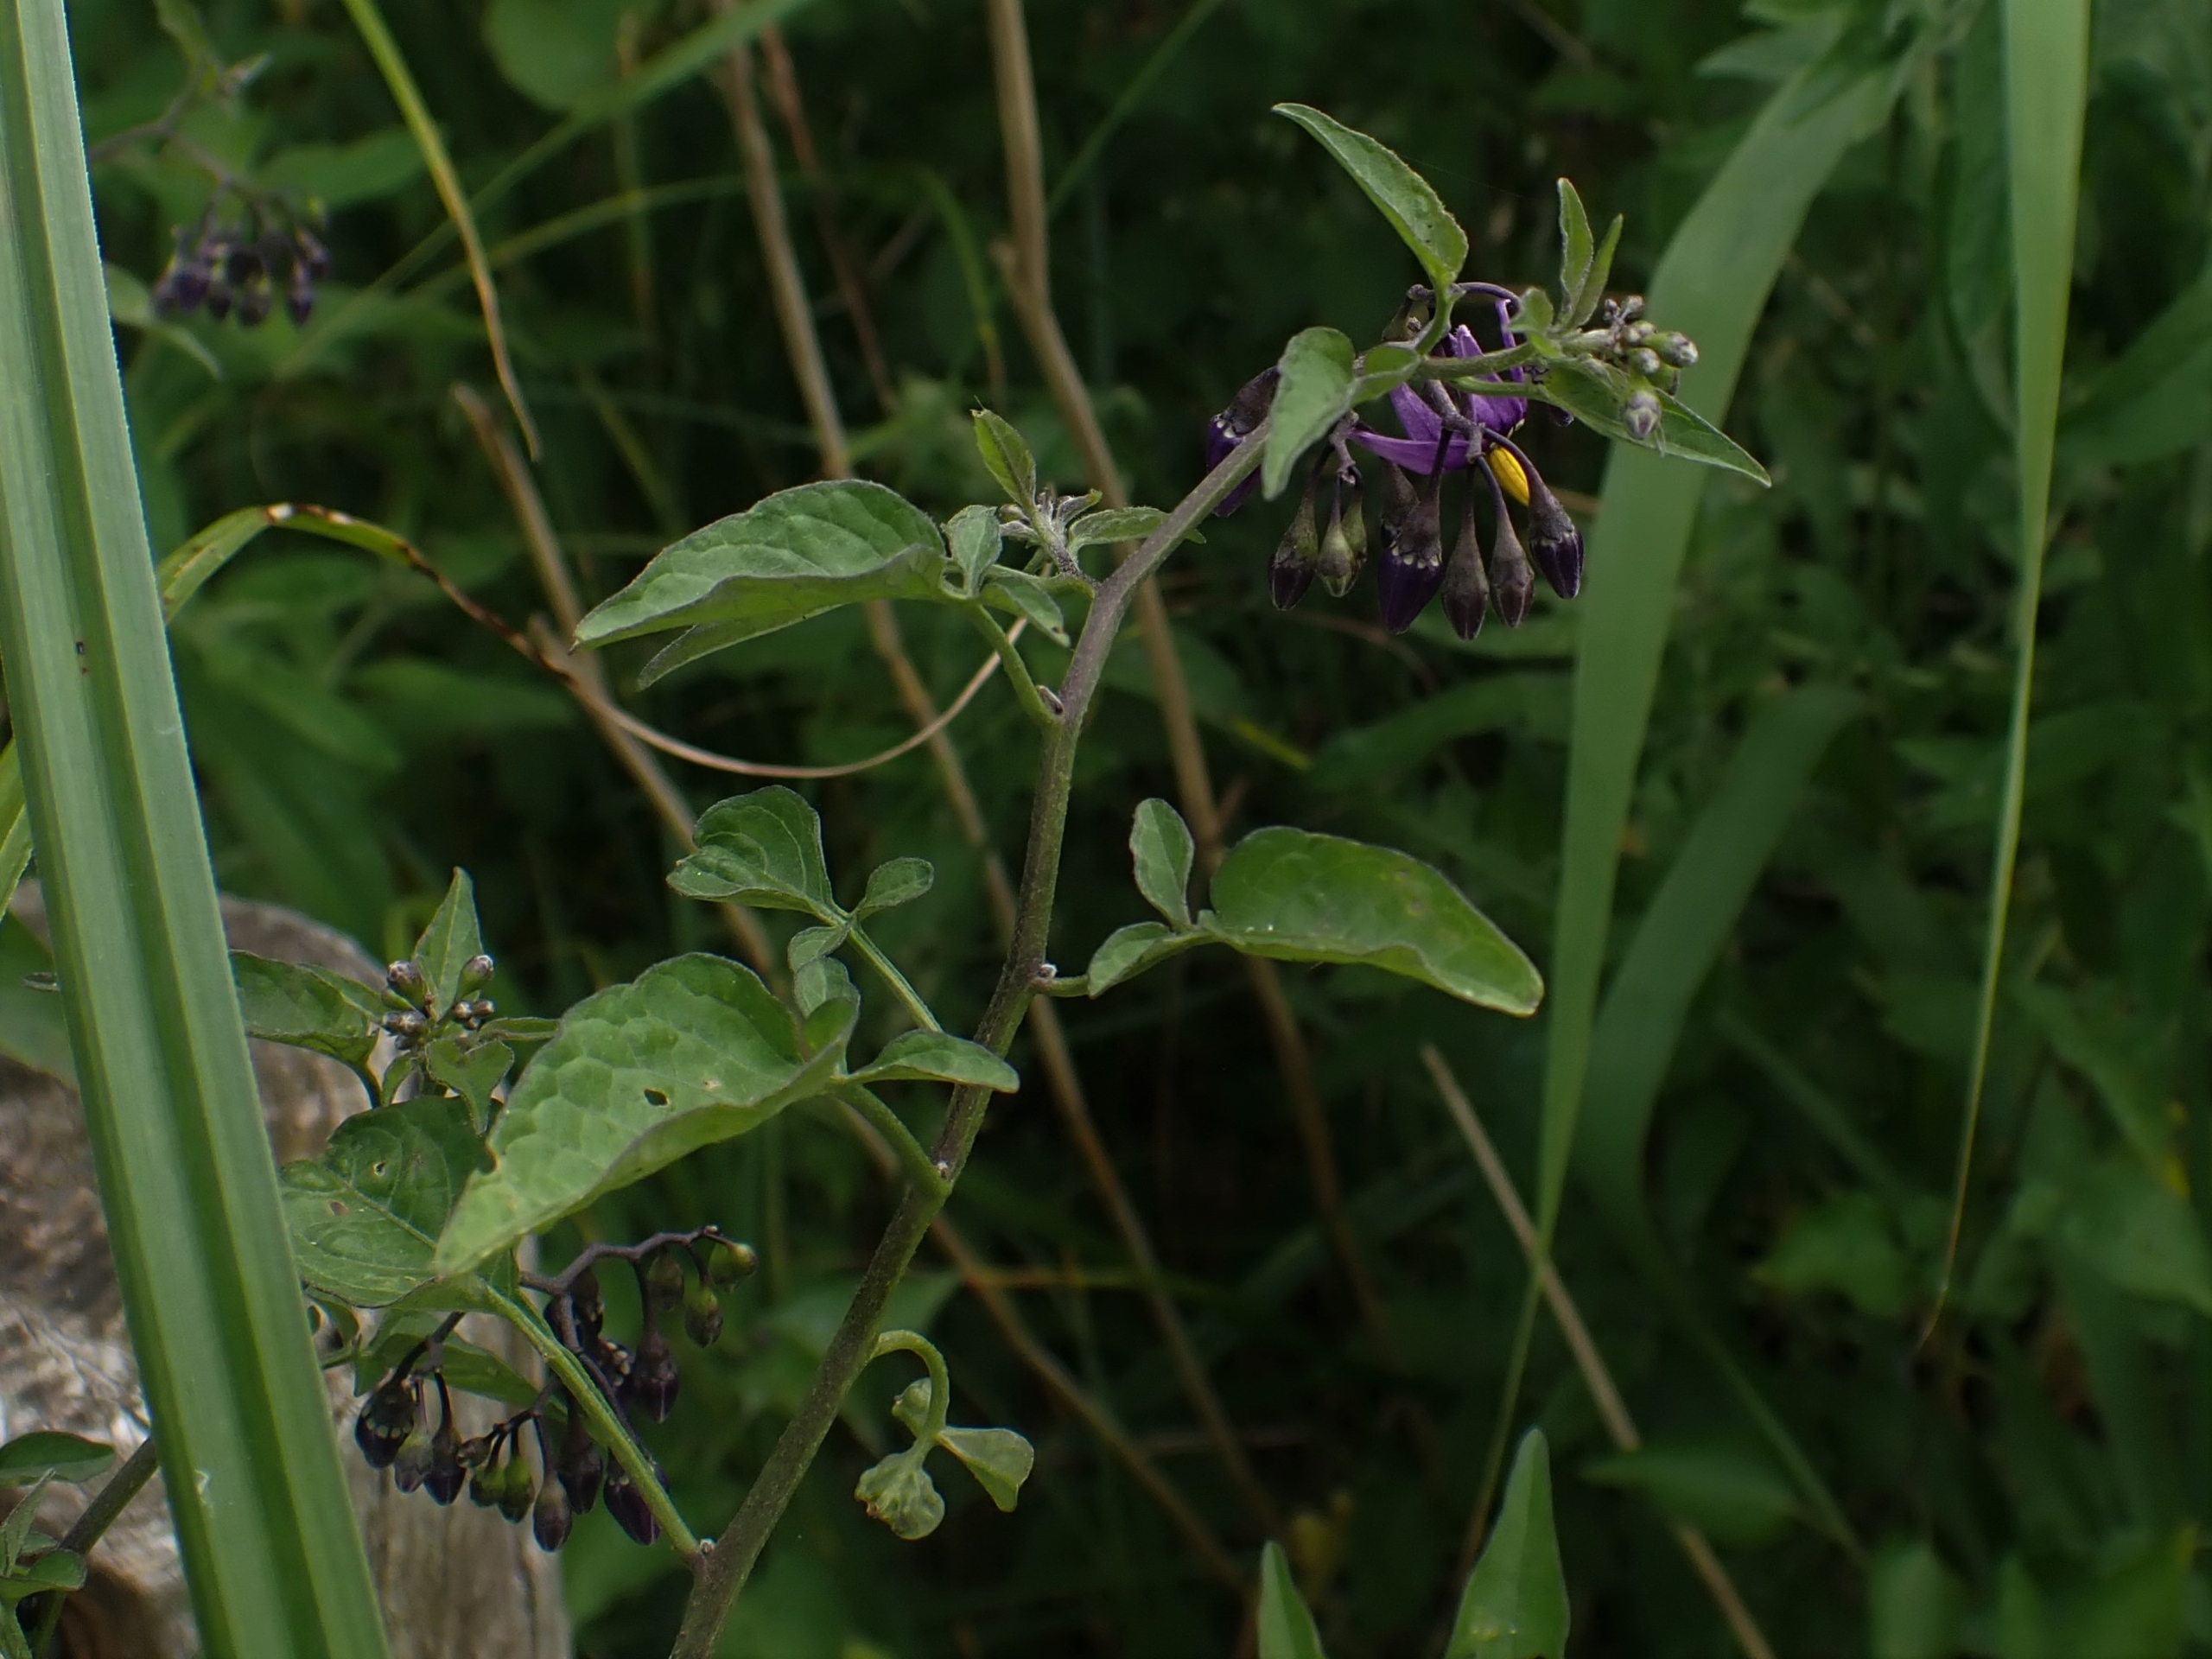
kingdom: Plantae
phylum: Tracheophyta
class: Magnoliopsida
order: Solanales
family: Solanaceae
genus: Solanum
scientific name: Solanum dulcamara
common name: Bittersød natskygge
